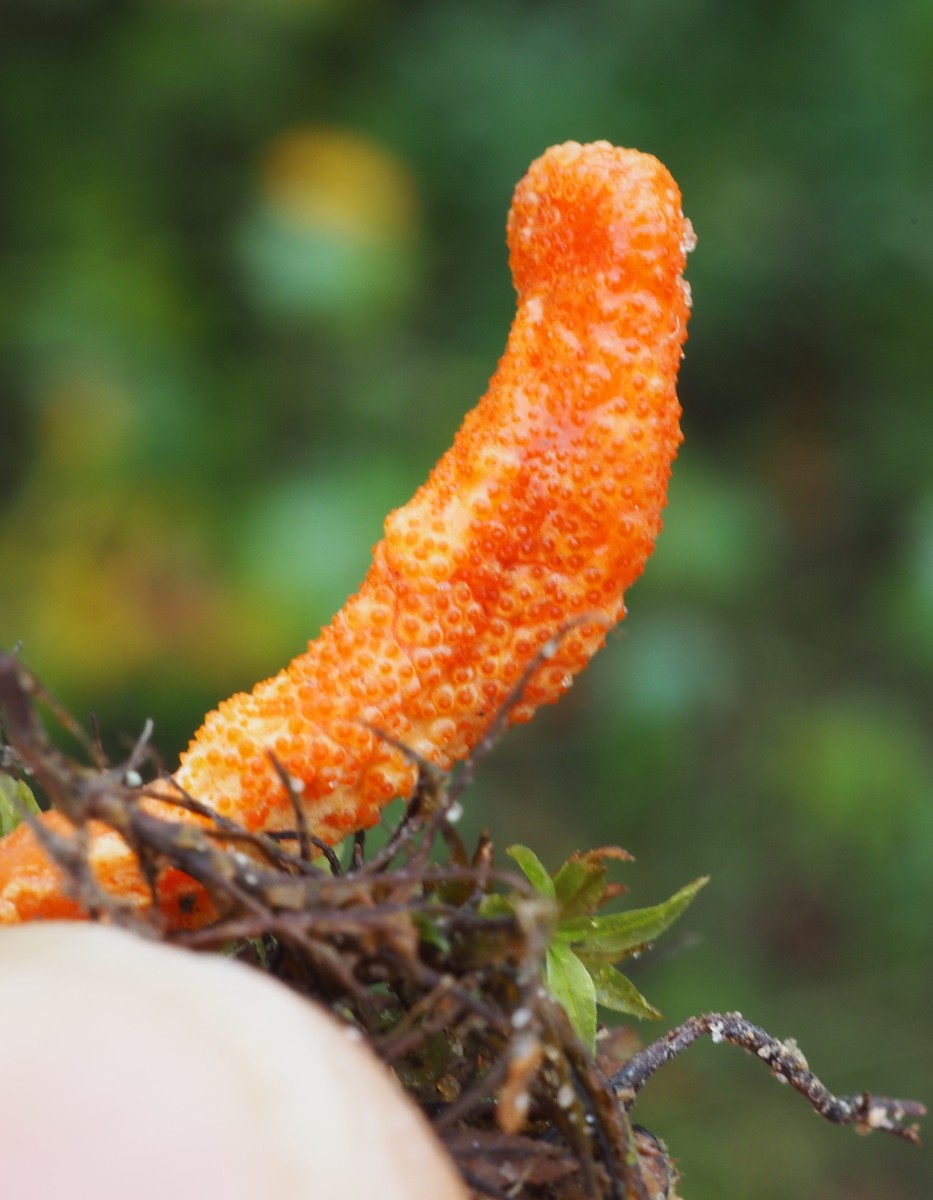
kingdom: Fungi
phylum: Ascomycota
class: Sordariomycetes
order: Hypocreales
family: Cordycipitaceae
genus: Cordyceps
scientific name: Cordyceps militaris
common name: puppe-snyltekølle
